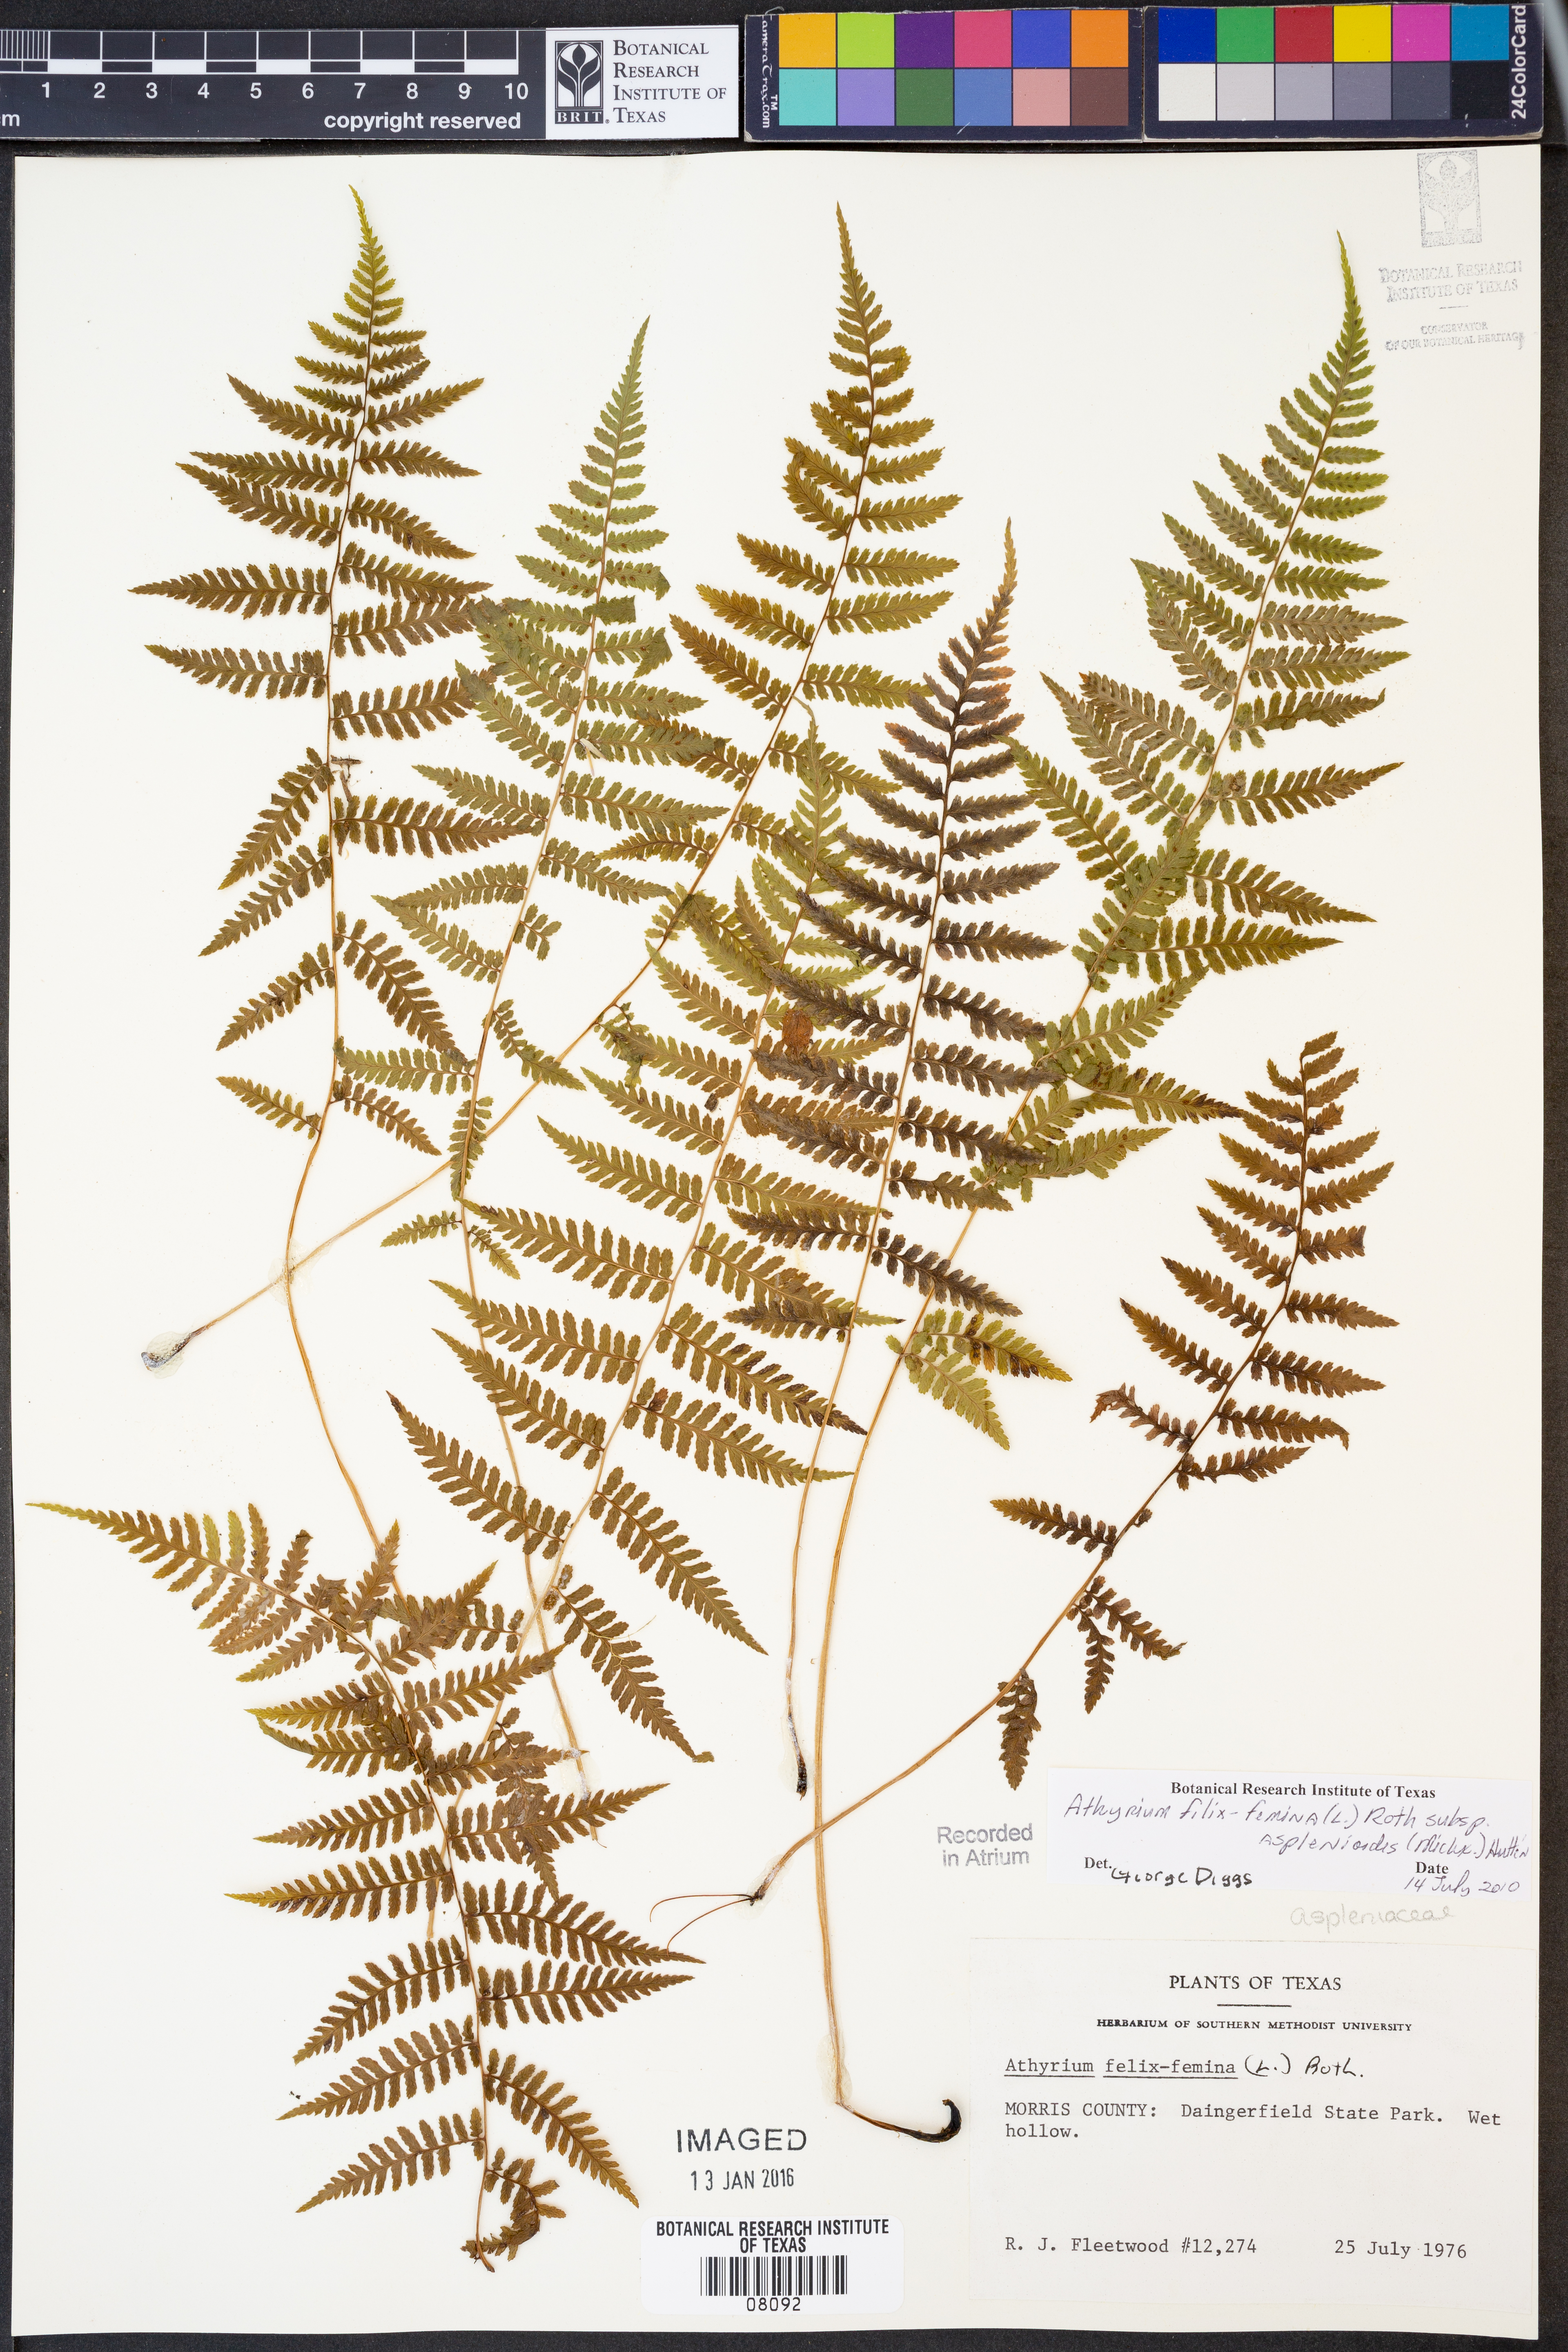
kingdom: Plantae
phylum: Tracheophyta
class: Polypodiopsida
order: Polypodiales
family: Athyriaceae
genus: Athyrium
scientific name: Athyrium asplenioides
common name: Southern lady fern
